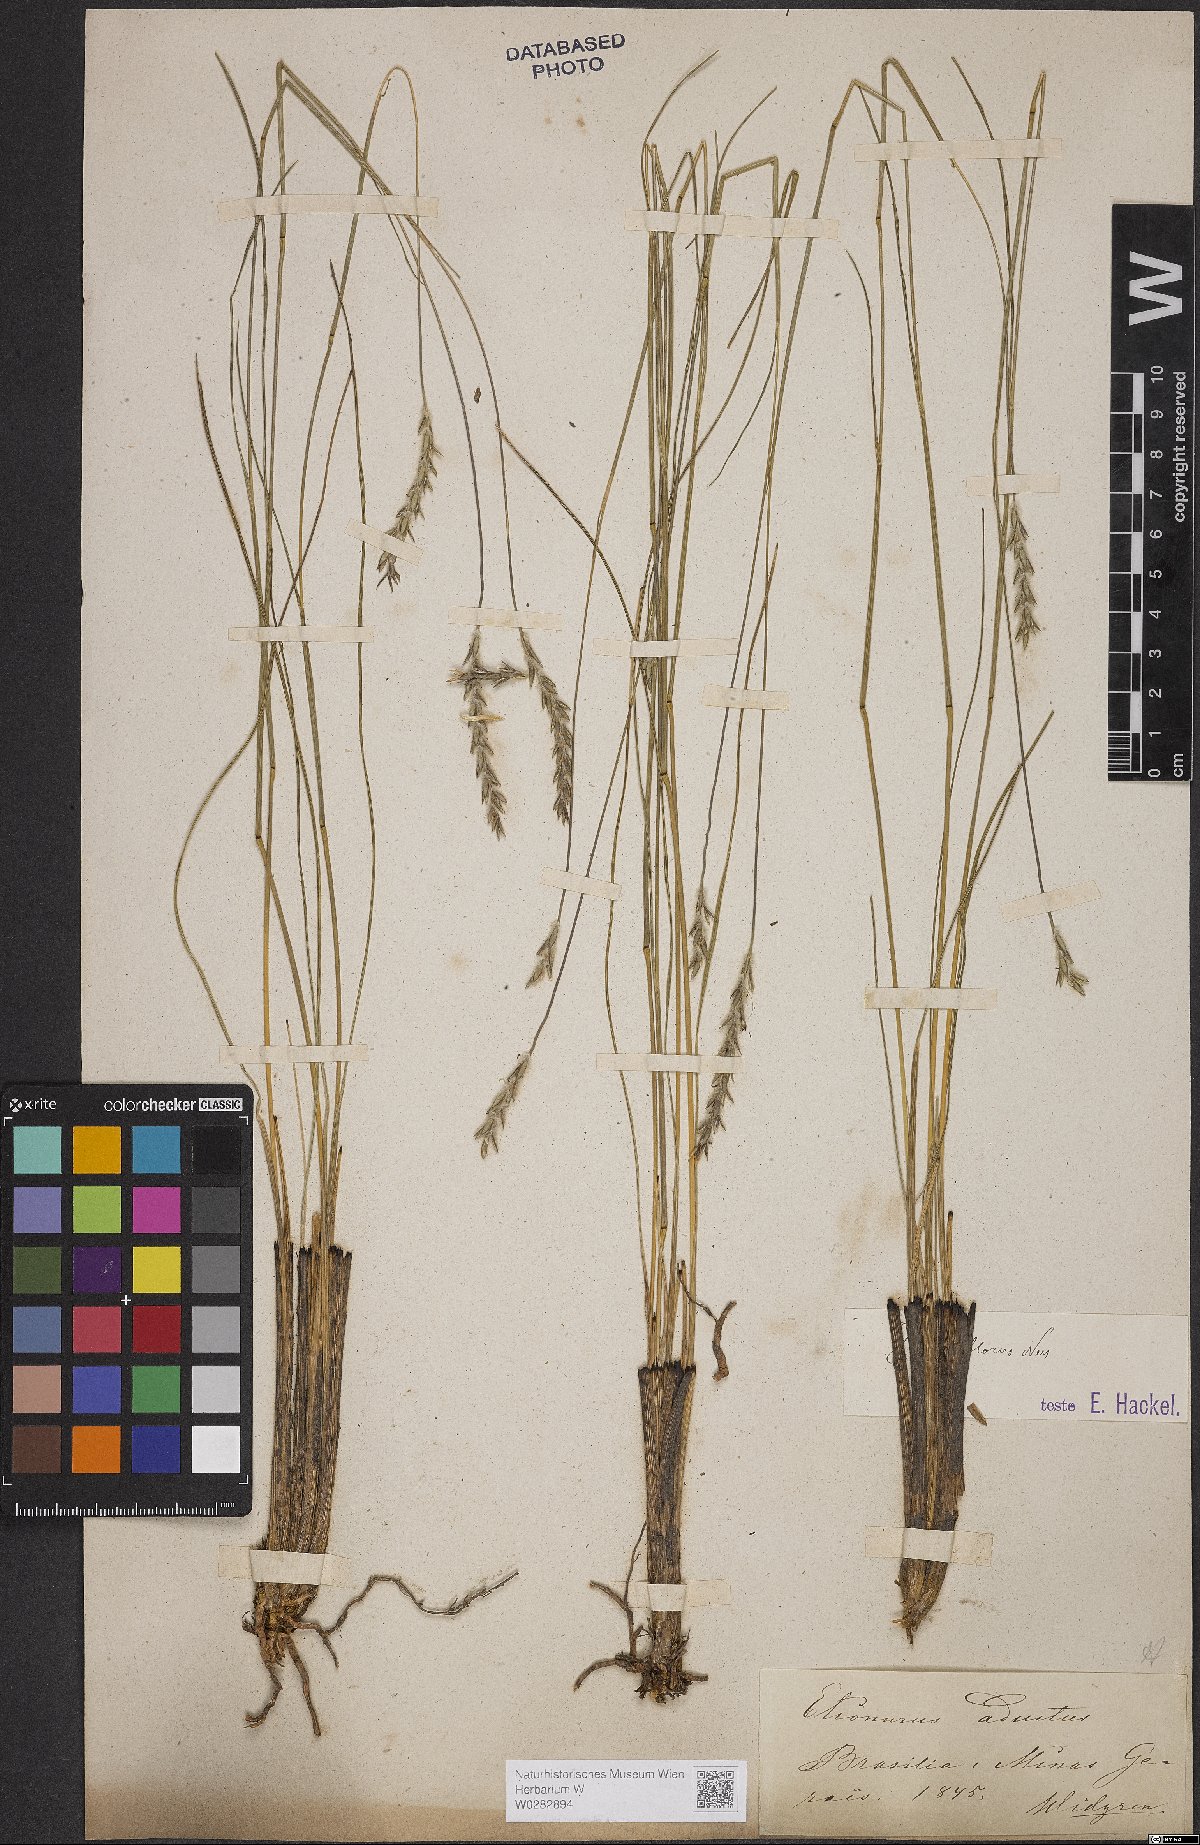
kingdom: Plantae
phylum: Tracheophyta
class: Liliopsida
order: Poales
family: Poaceae
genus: Elionurus
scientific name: Elionurus muticus
